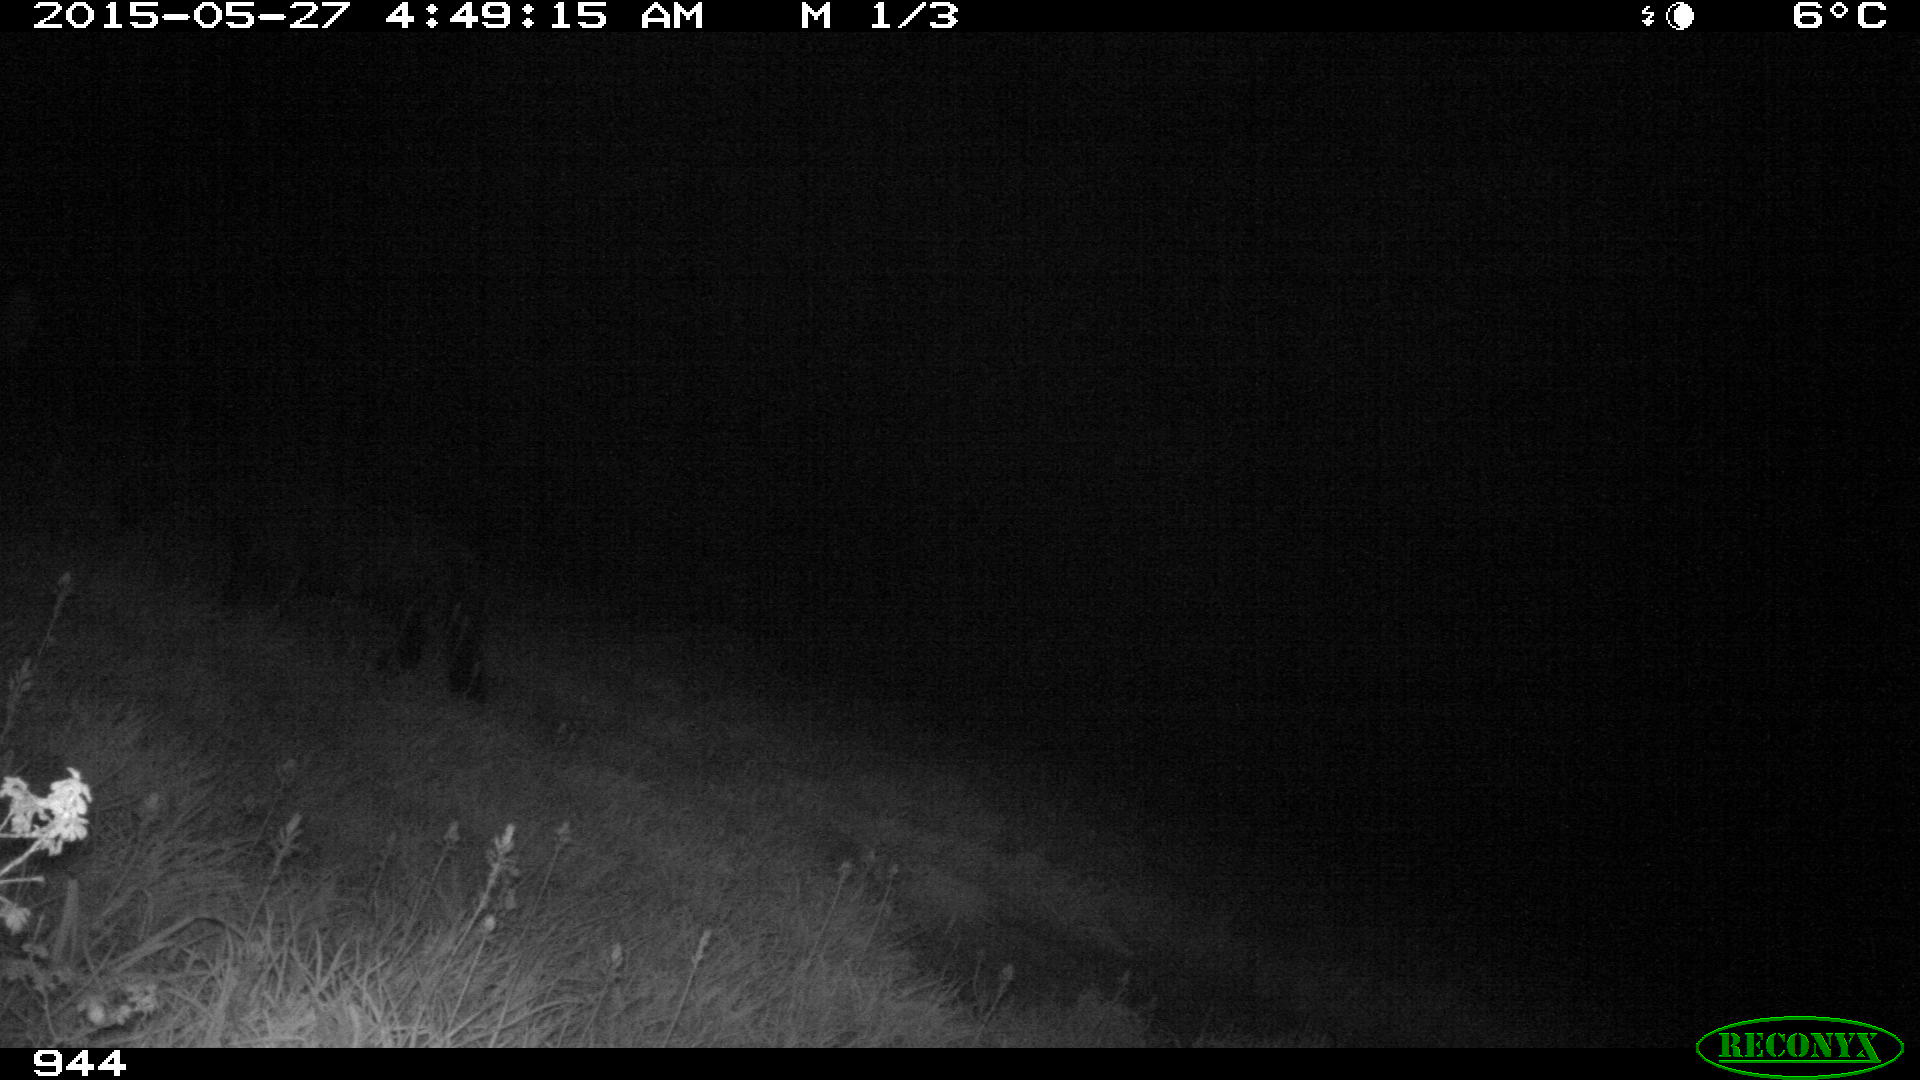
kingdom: Animalia
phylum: Chordata
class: Mammalia
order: Perissodactyla
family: Equidae
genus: Equus
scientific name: Equus caballus
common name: Horse
